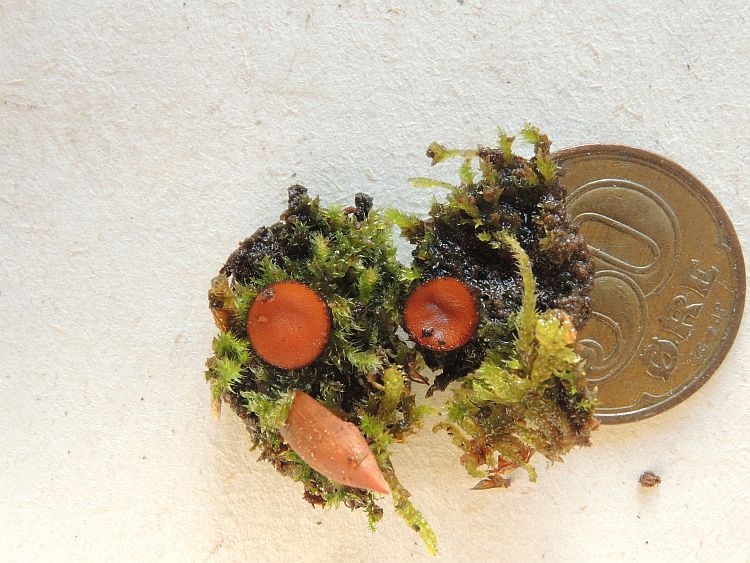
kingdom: Fungi
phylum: Ascomycota
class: Pezizomycetes
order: Pezizales
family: Pyronemataceae
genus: Scutellinia
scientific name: Scutellinia scutellata
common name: frynset skjoldbæger
